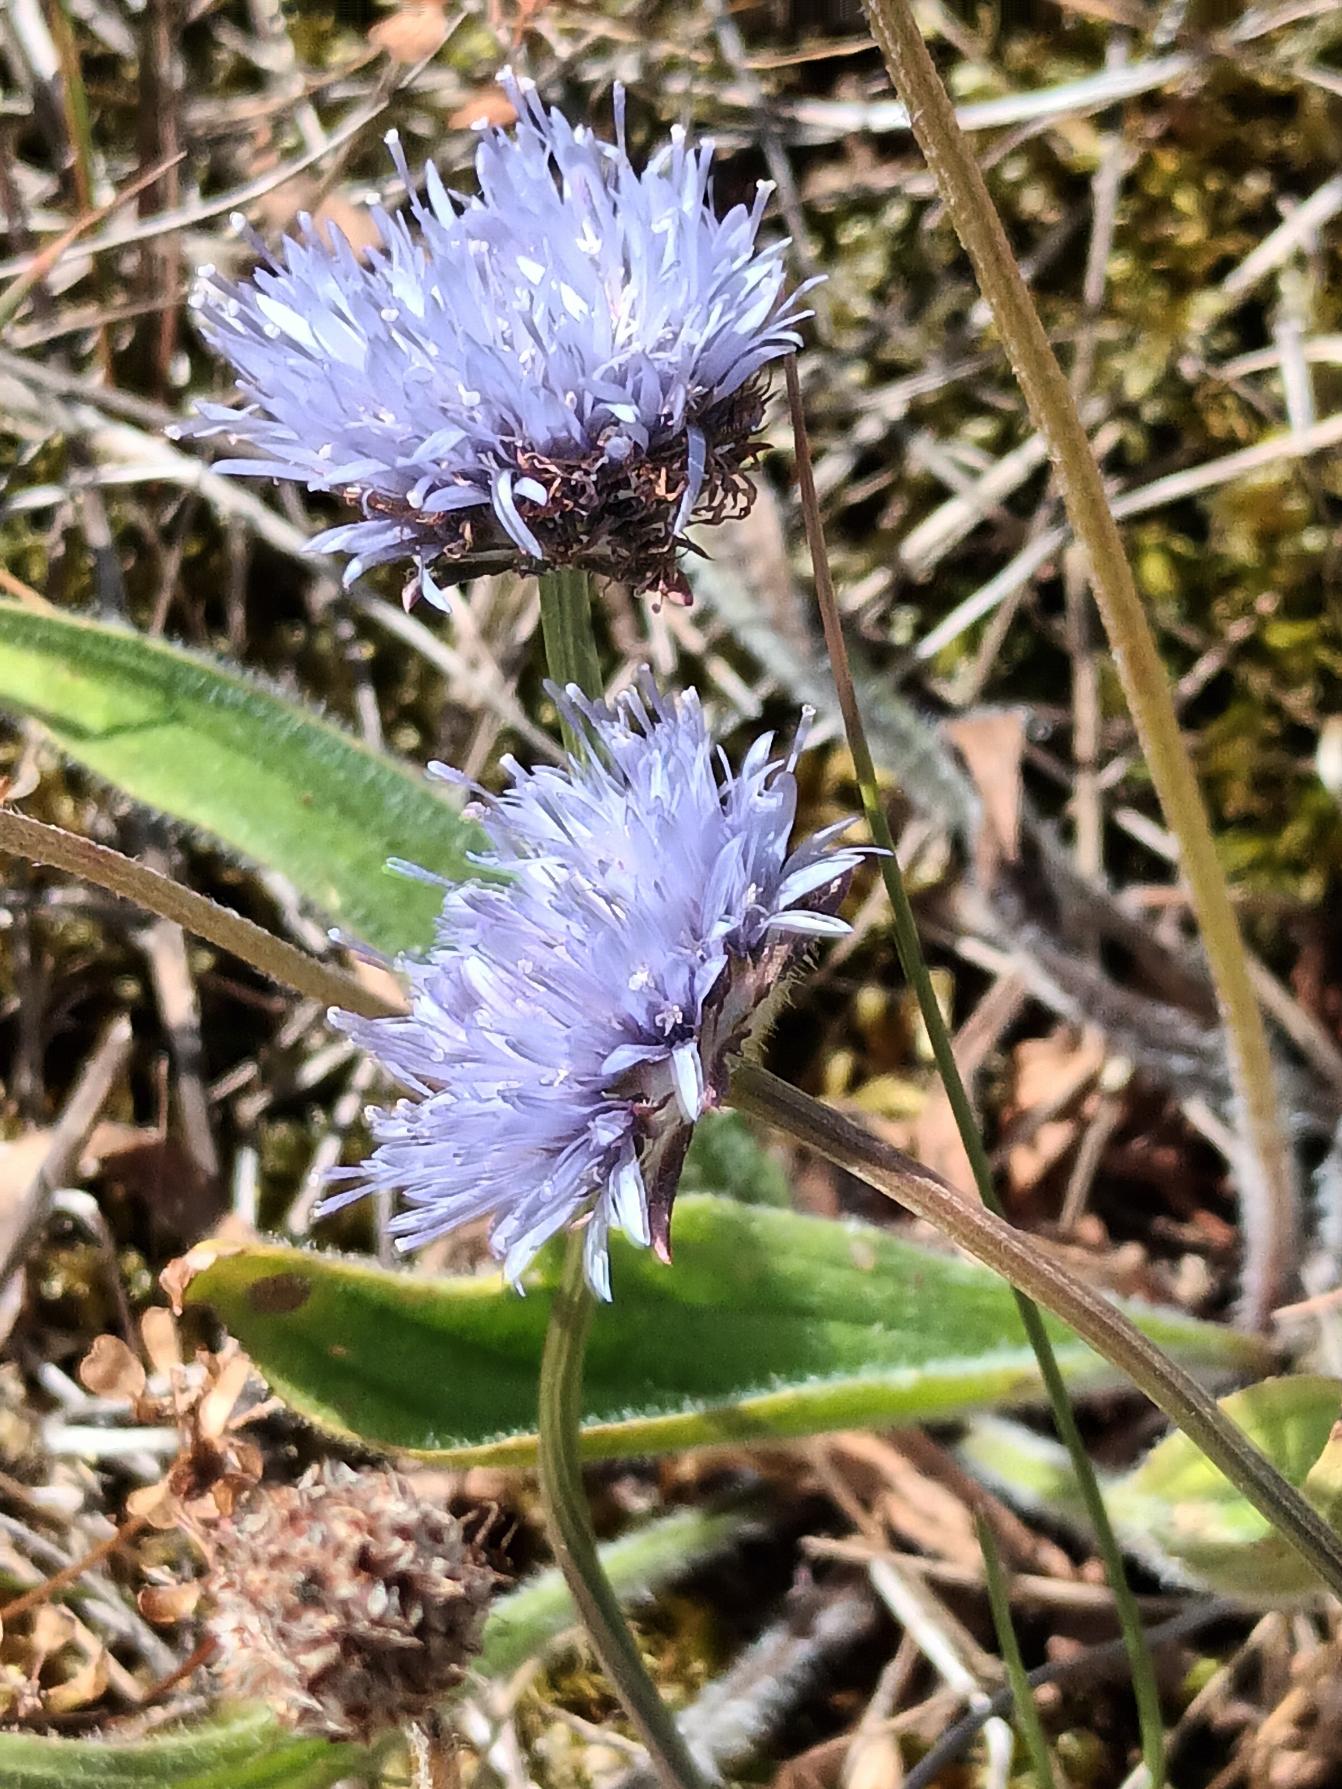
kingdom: Plantae
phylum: Tracheophyta
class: Magnoliopsida
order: Asterales
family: Campanulaceae
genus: Jasione
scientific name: Jasione montana
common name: Blåmunke
